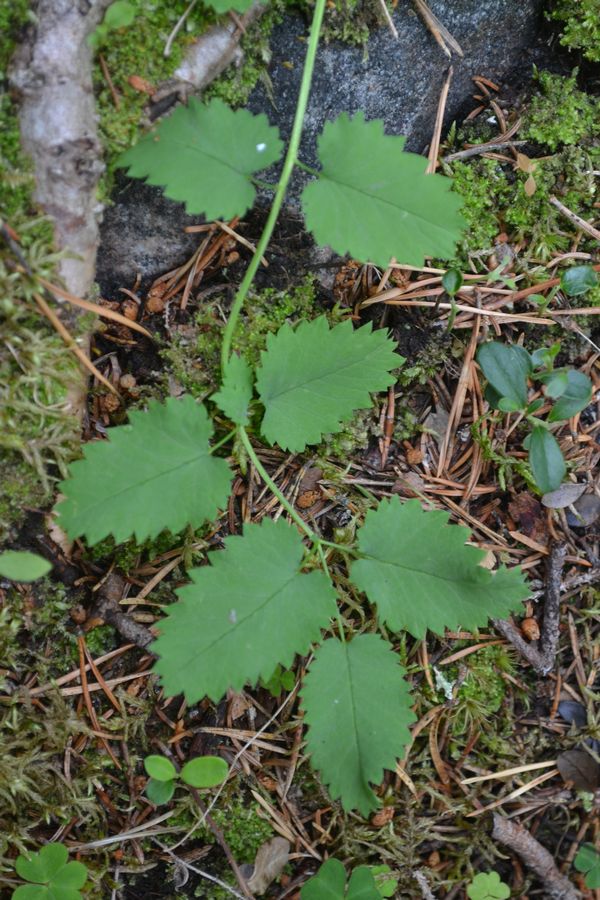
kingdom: Plantae
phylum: Tracheophyta
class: Magnoliopsida
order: Rosales
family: Rosaceae
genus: Sanguisorba
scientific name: Sanguisorba officinalis
